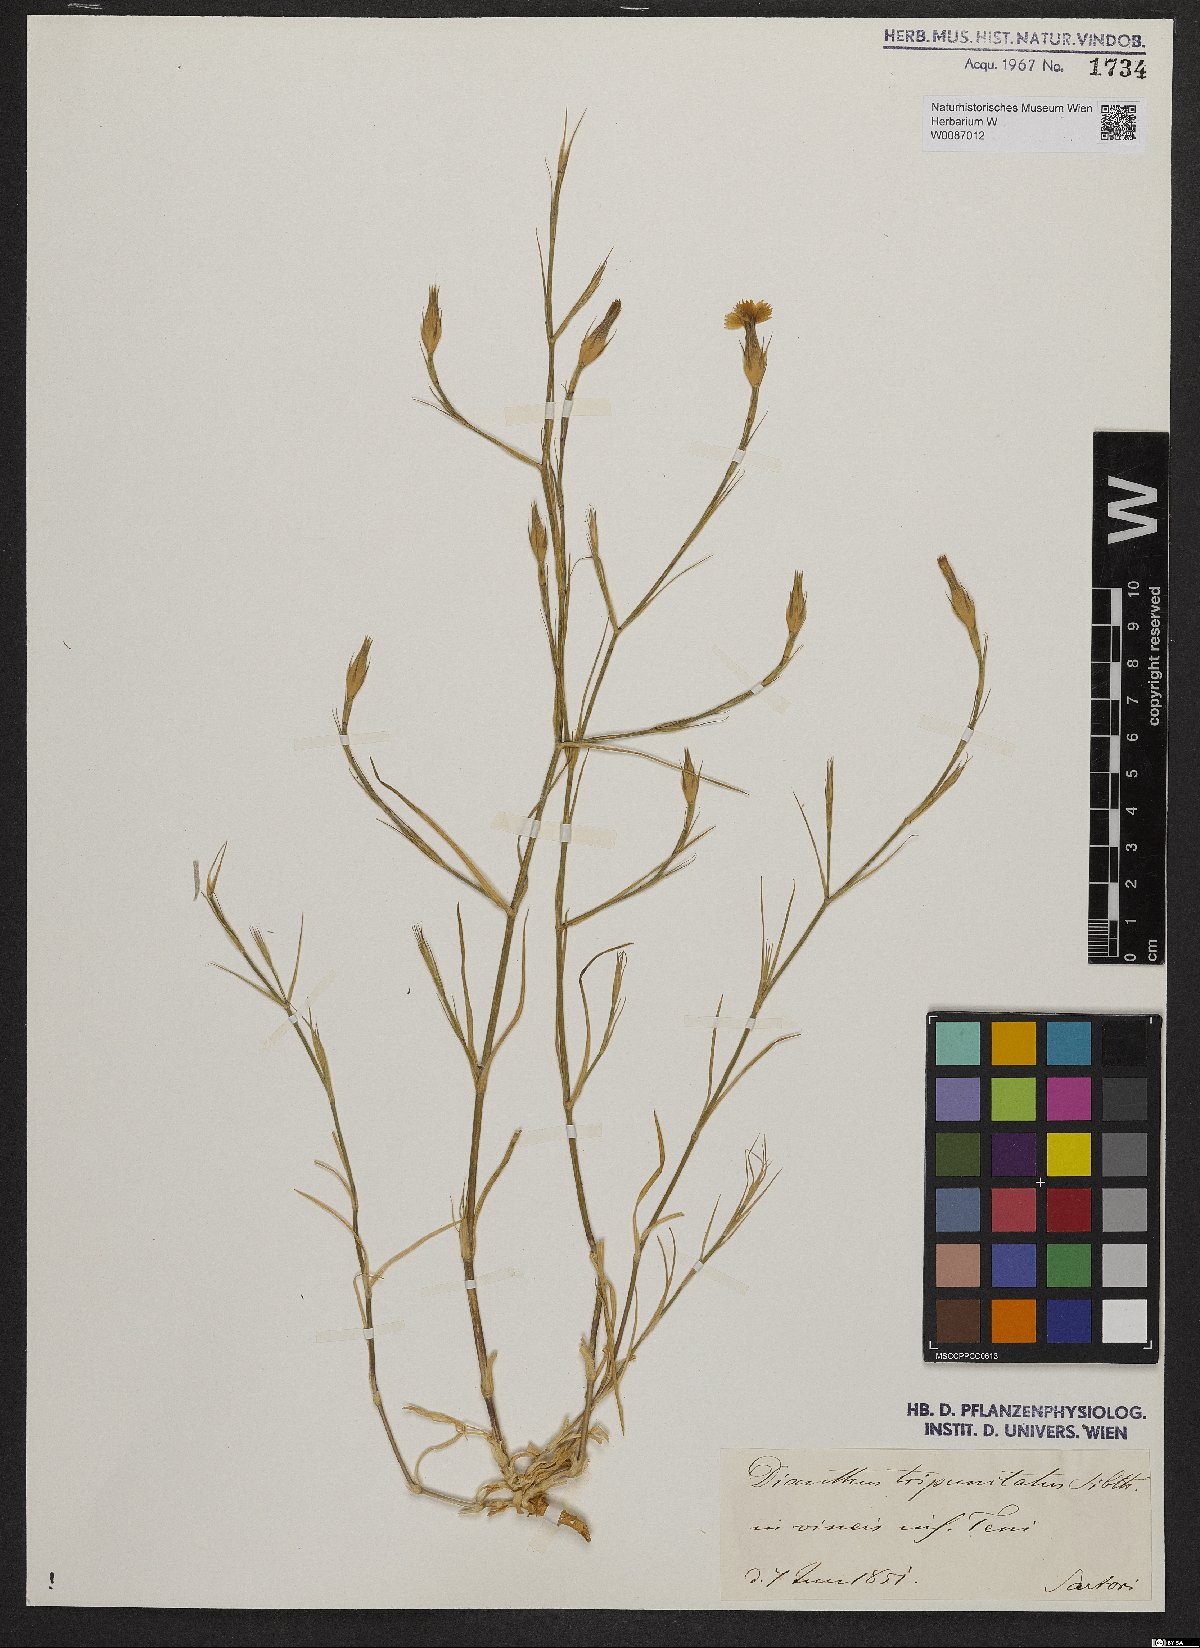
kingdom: Plantae
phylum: Tracheophyta
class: Magnoliopsida
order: Caryophyllales
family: Caryophyllaceae
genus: Dianthus
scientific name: Dianthus tripunctatus
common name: Three-spotted pink
